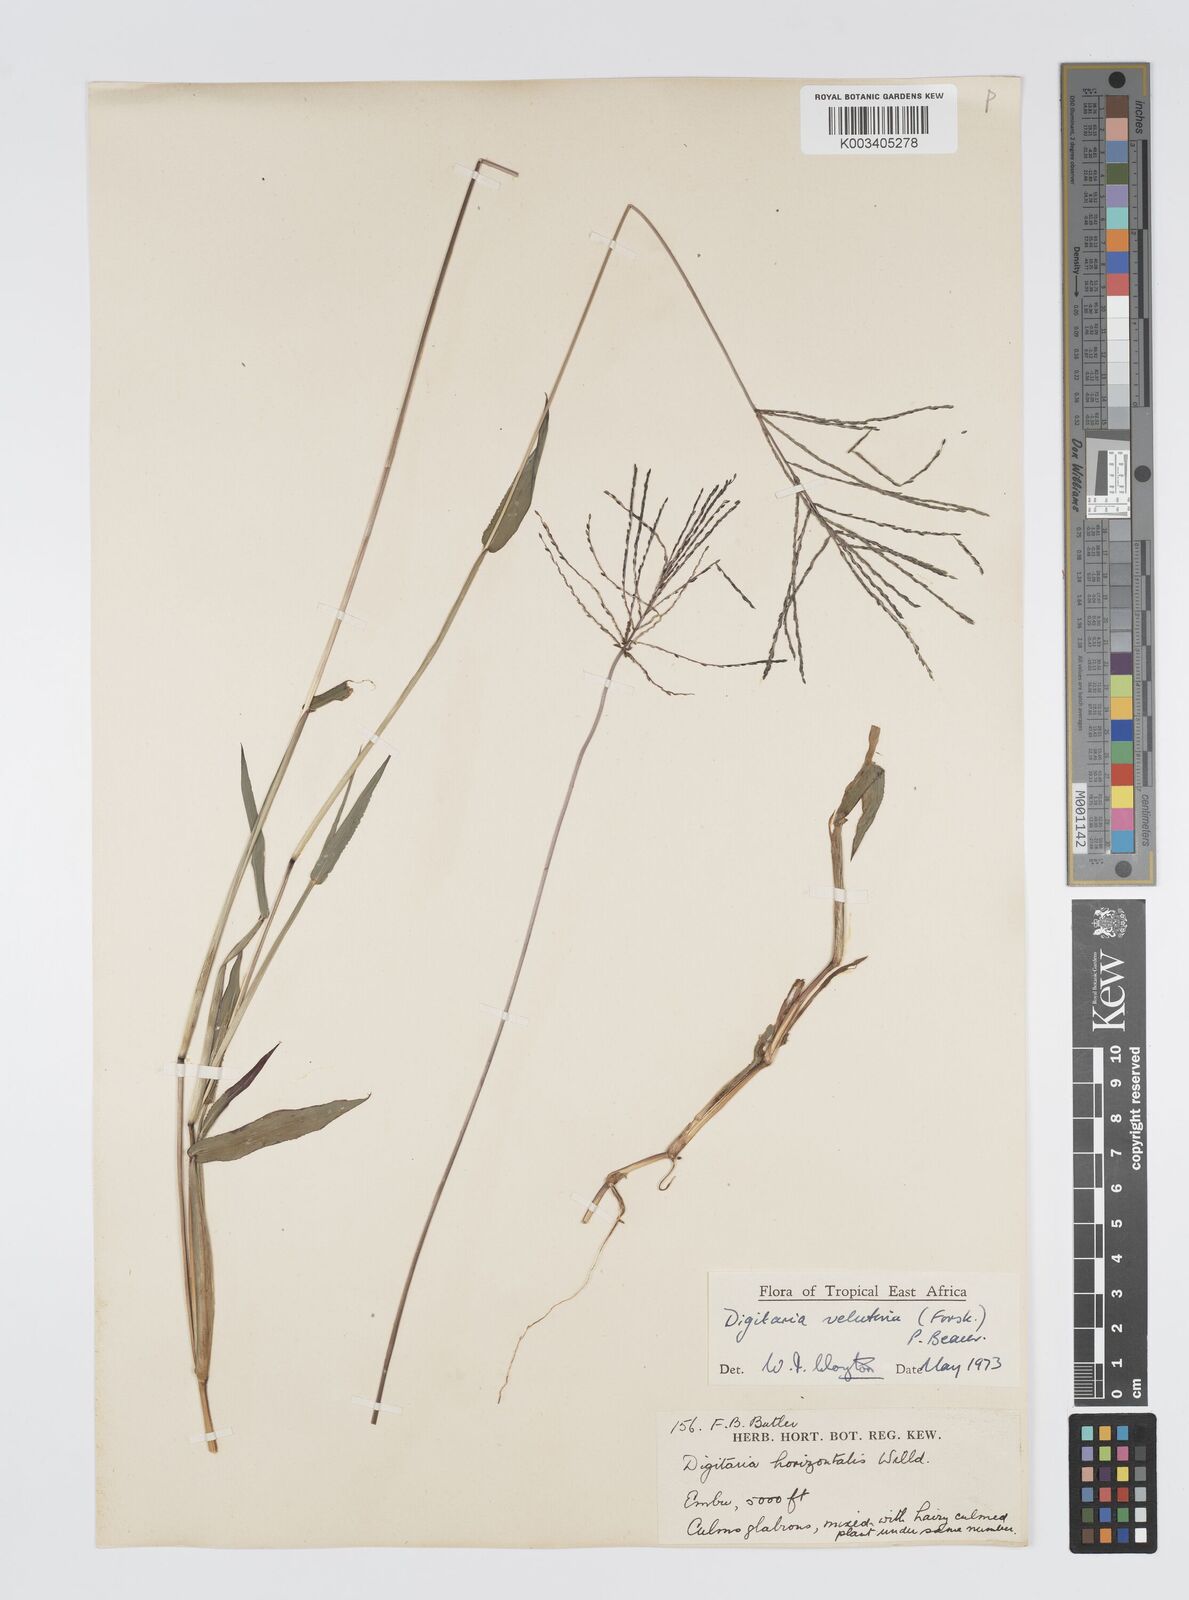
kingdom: Plantae
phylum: Tracheophyta
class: Liliopsida
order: Poales
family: Poaceae
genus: Digitaria
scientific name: Digitaria velutina
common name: Long-plume finger grass
